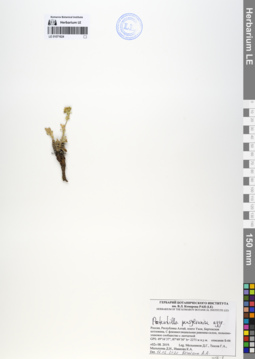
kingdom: Plantae
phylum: Tracheophyta
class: Magnoliopsida
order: Rosales
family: Rosaceae
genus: Potentilla
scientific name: Potentilla pensylvanica
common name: Pennsylvania cinquefoil
